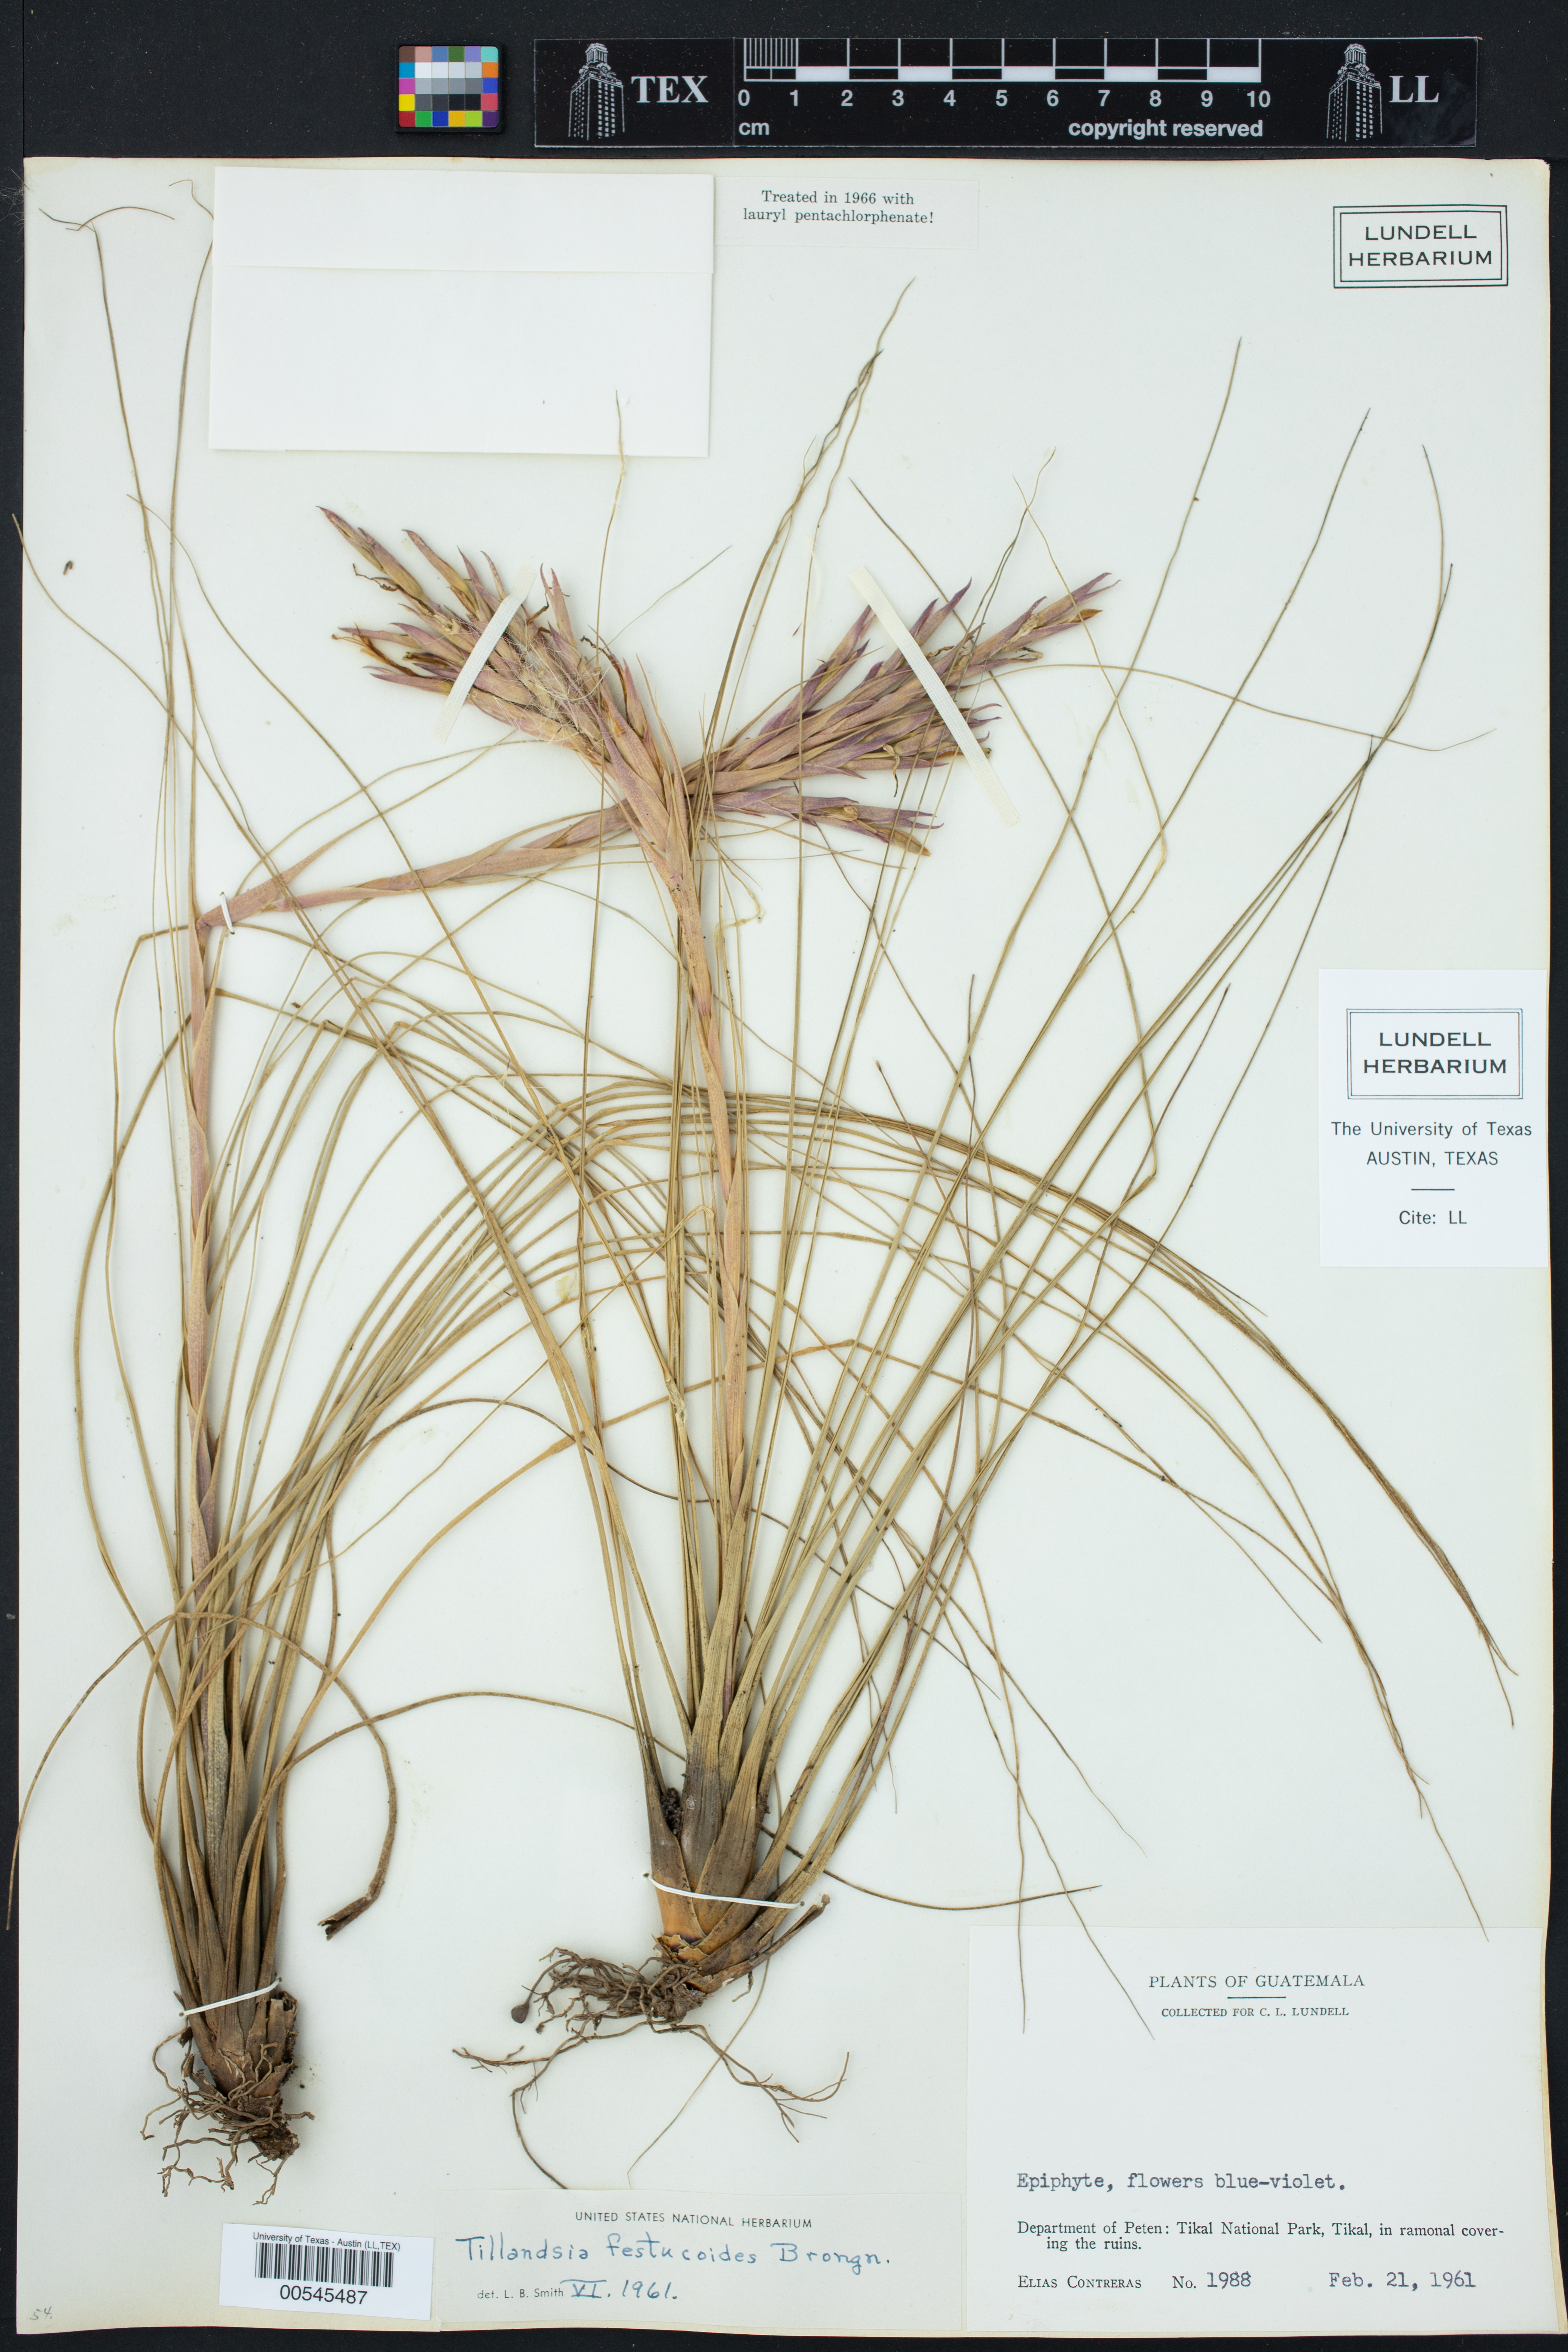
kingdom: Plantae
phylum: Tracheophyta
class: Liliopsida
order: Poales
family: Bromeliaceae
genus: Tillandsia
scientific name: Tillandsia festucoides
